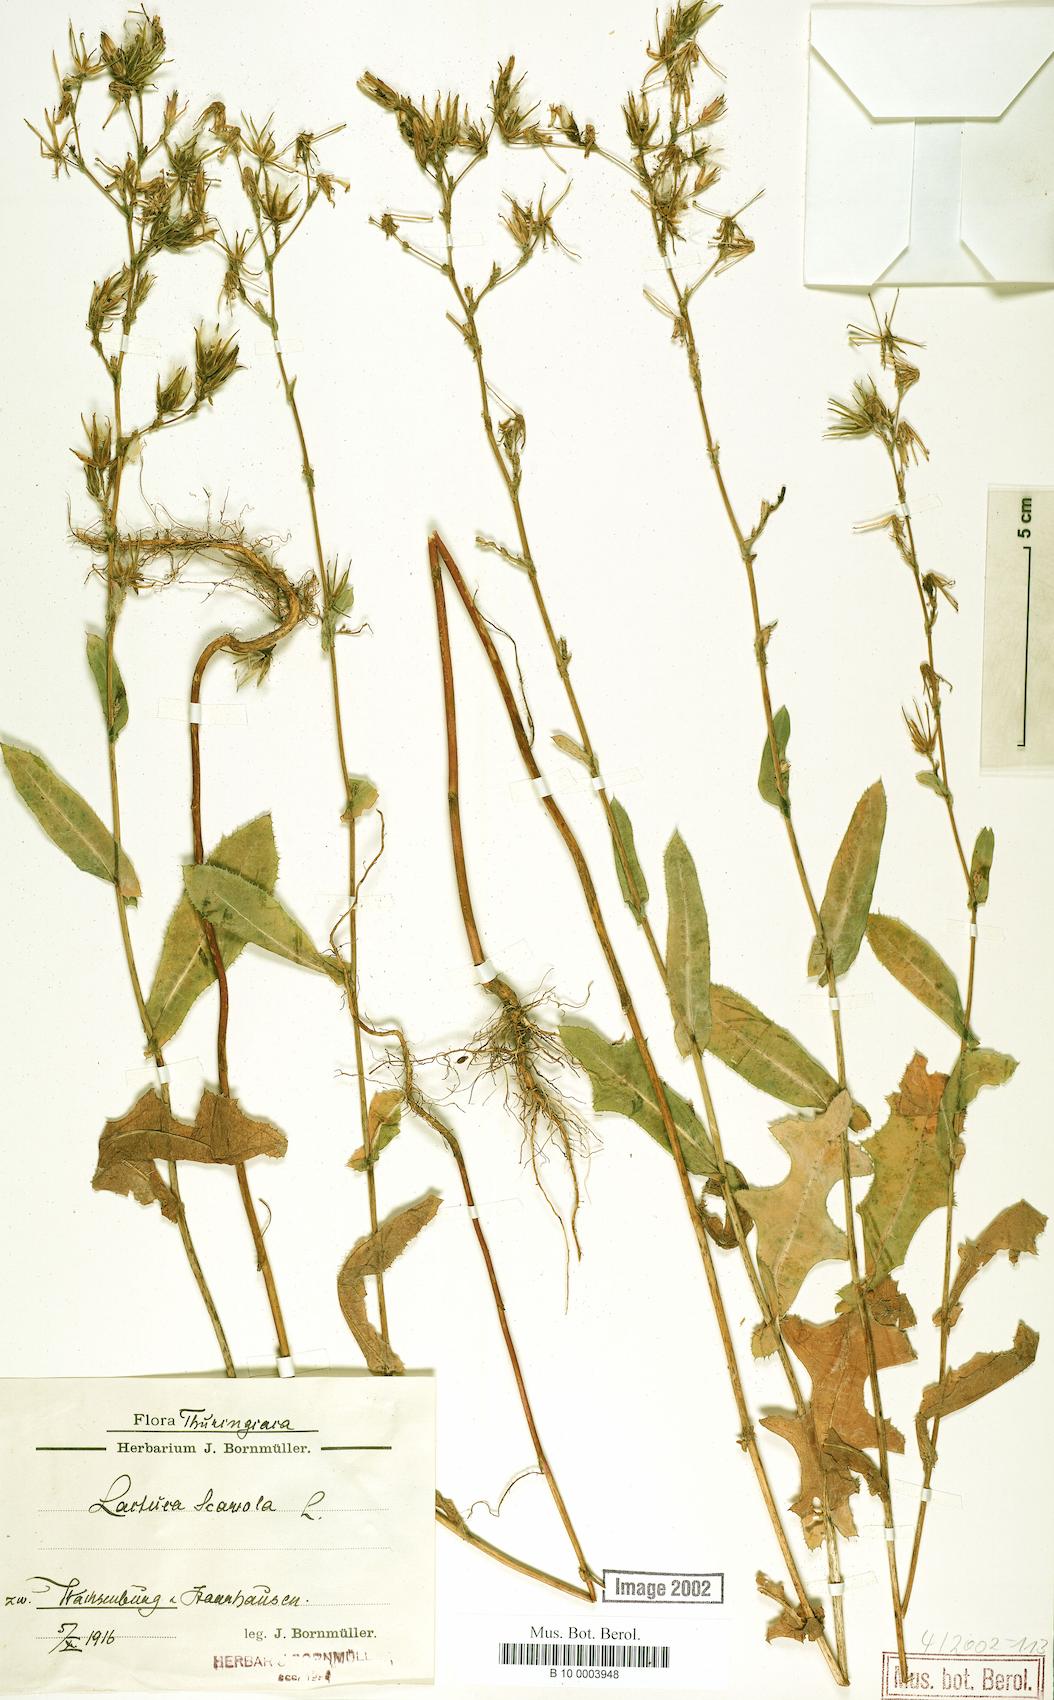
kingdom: Plantae
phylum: Tracheophyta
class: Magnoliopsida
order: Asterales
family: Asteraceae
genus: Lactuca
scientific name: Lactuca serriola
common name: Prickly lettuce
